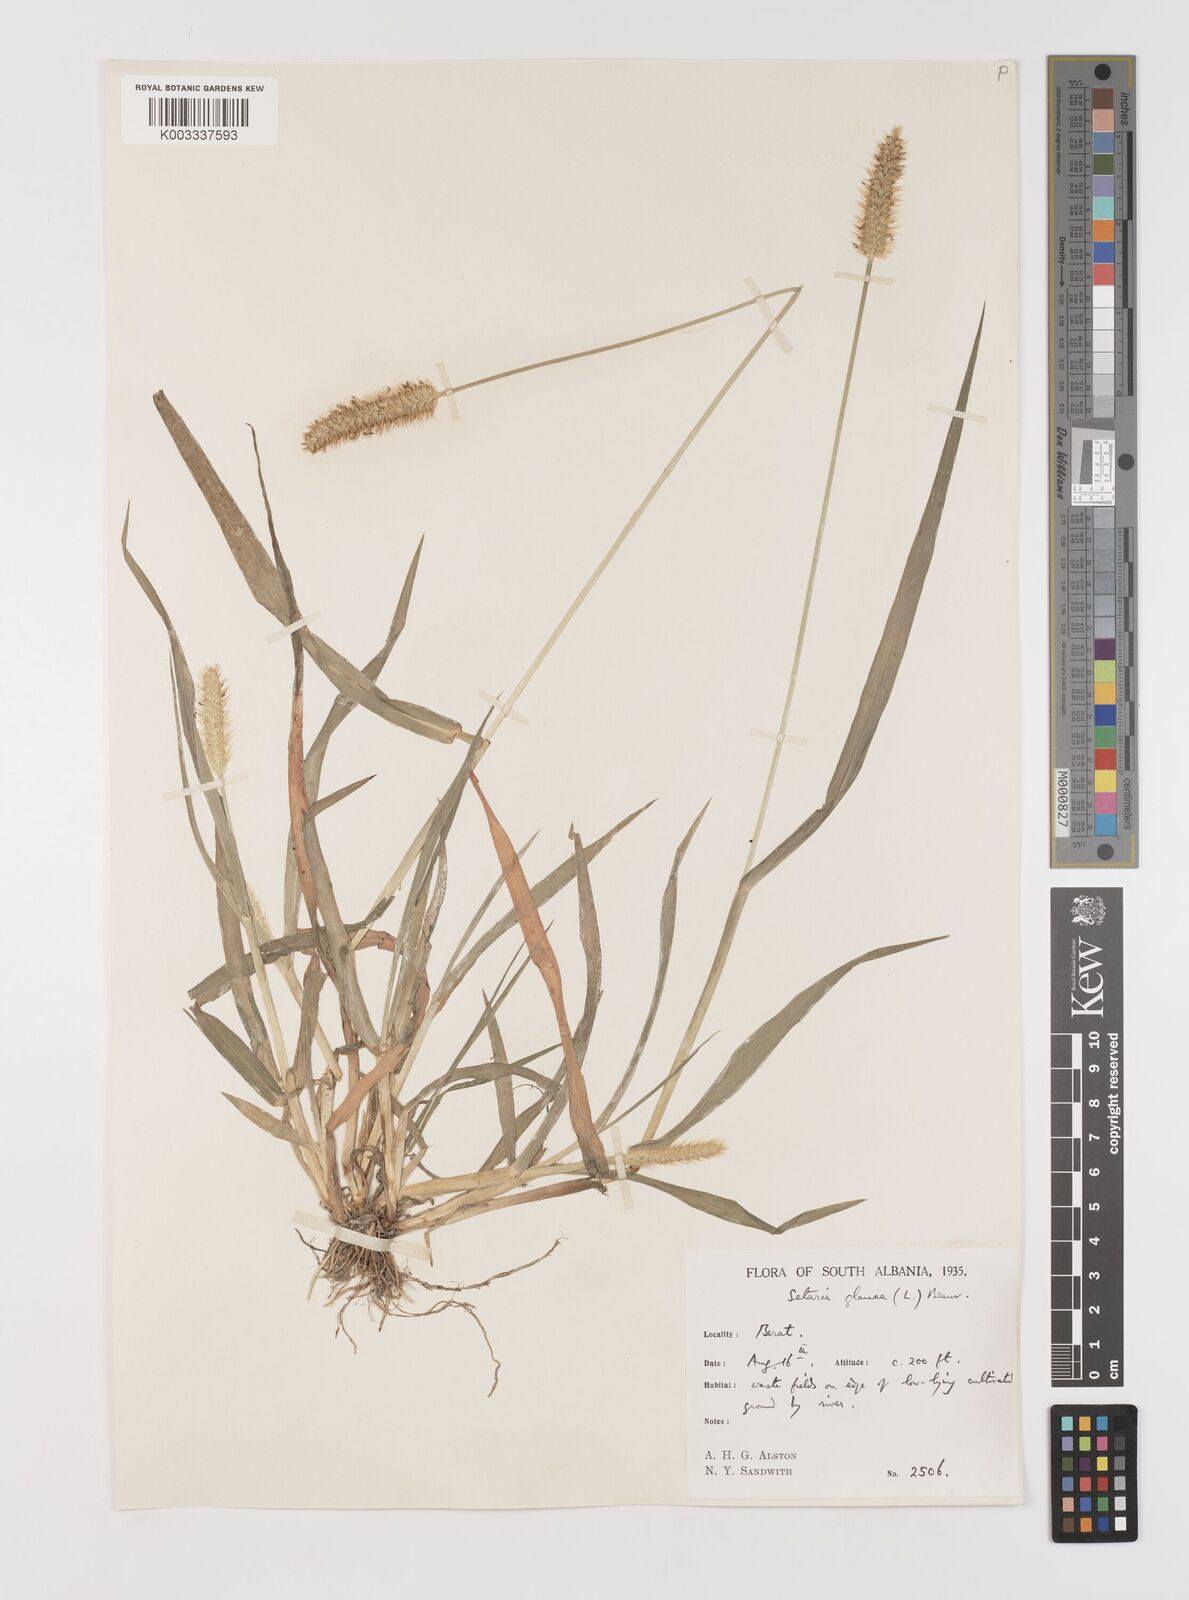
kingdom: Plantae
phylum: Tracheophyta
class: Liliopsida
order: Poales
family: Poaceae
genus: Setaria
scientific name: Setaria pumila
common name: Yellow bristle-grass
